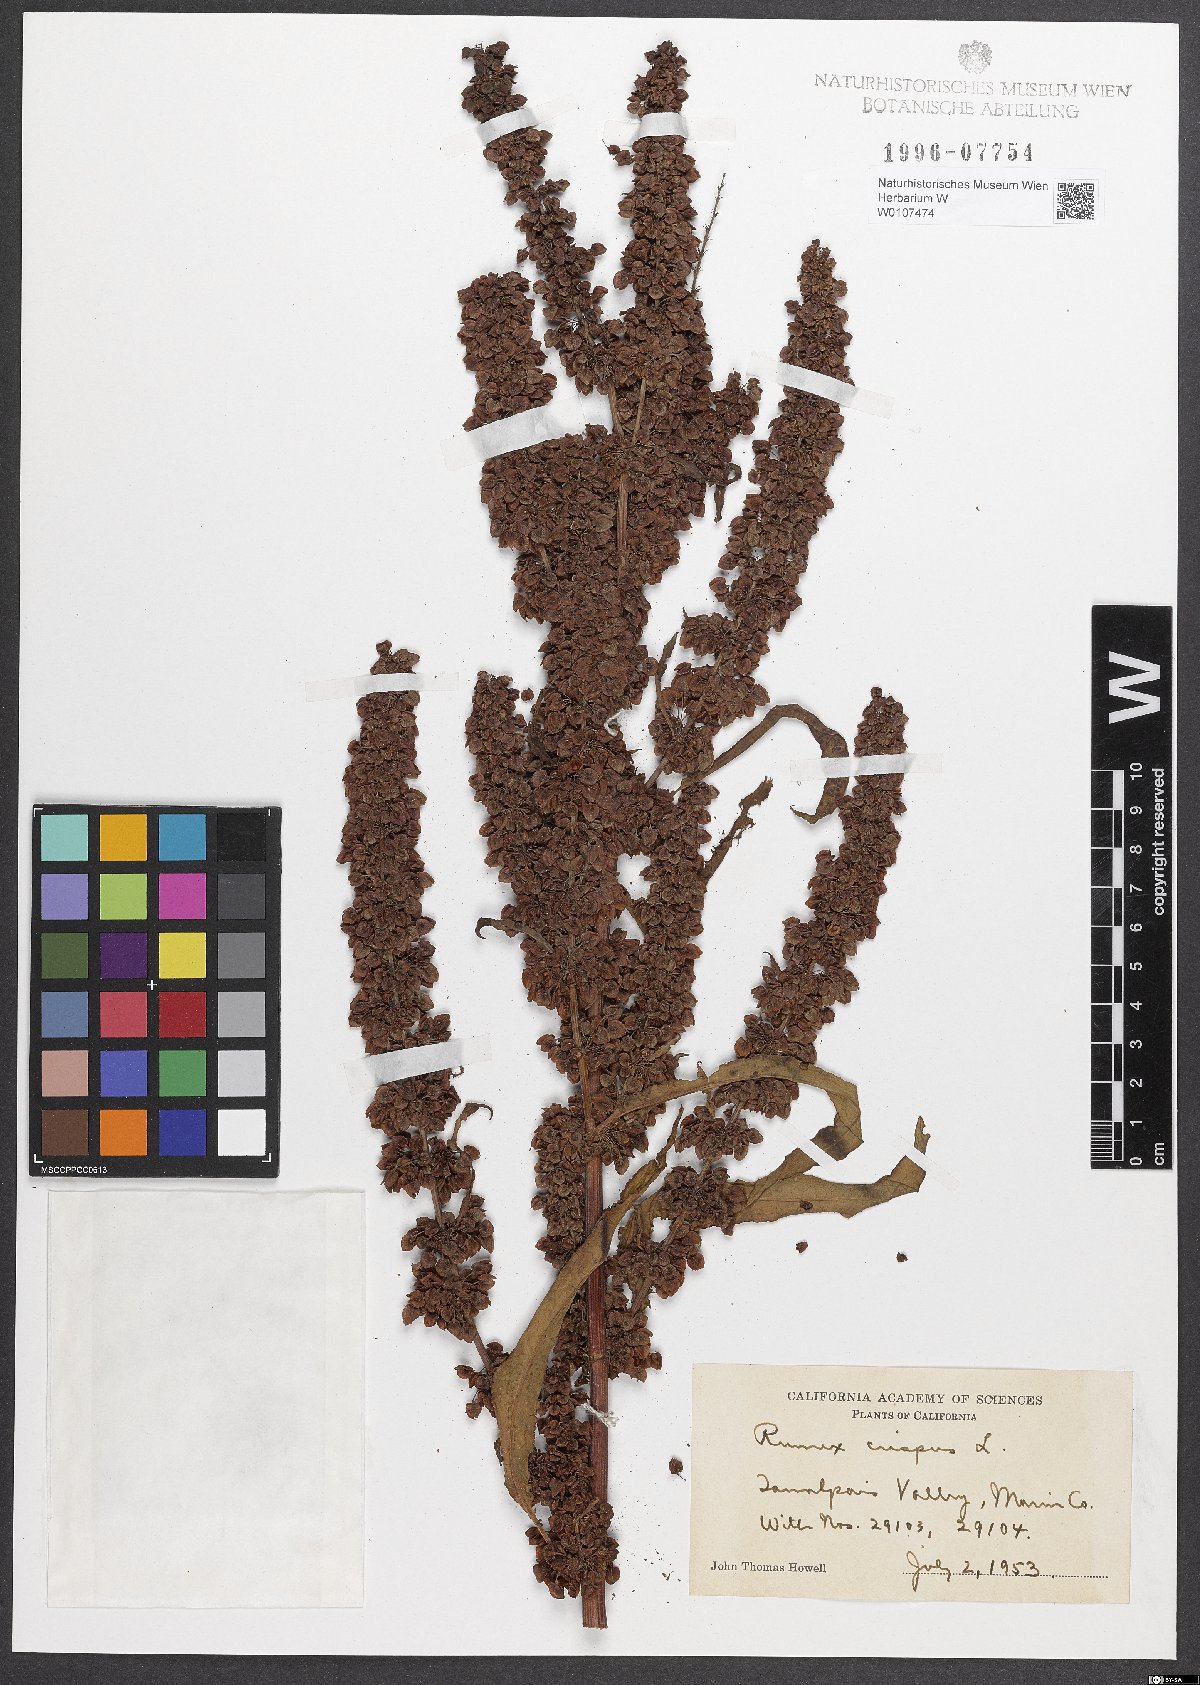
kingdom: Plantae
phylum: Tracheophyta
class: Magnoliopsida
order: Caryophyllales
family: Polygonaceae
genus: Rumex
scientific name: Rumex crispus
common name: Curled dock
